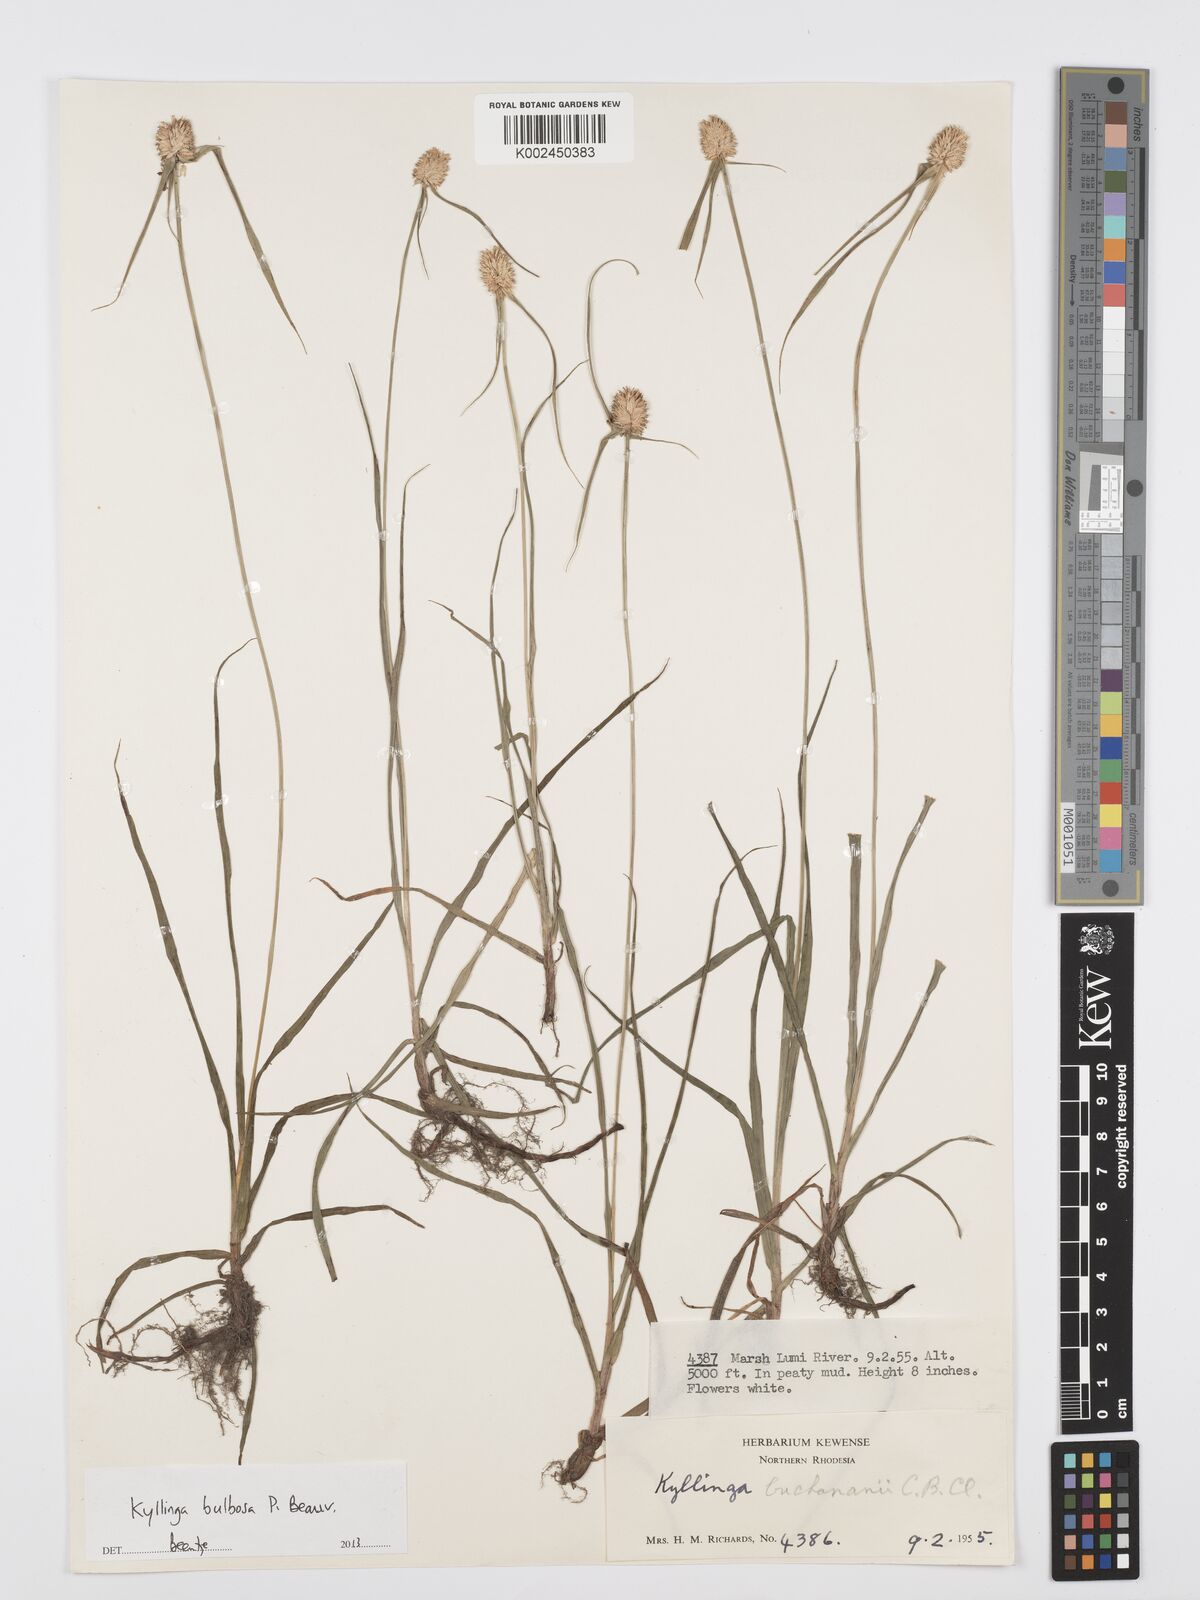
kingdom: Plantae
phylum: Tracheophyta
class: Liliopsida
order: Poales
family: Cyperaceae
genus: Cyperus
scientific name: Cyperus
